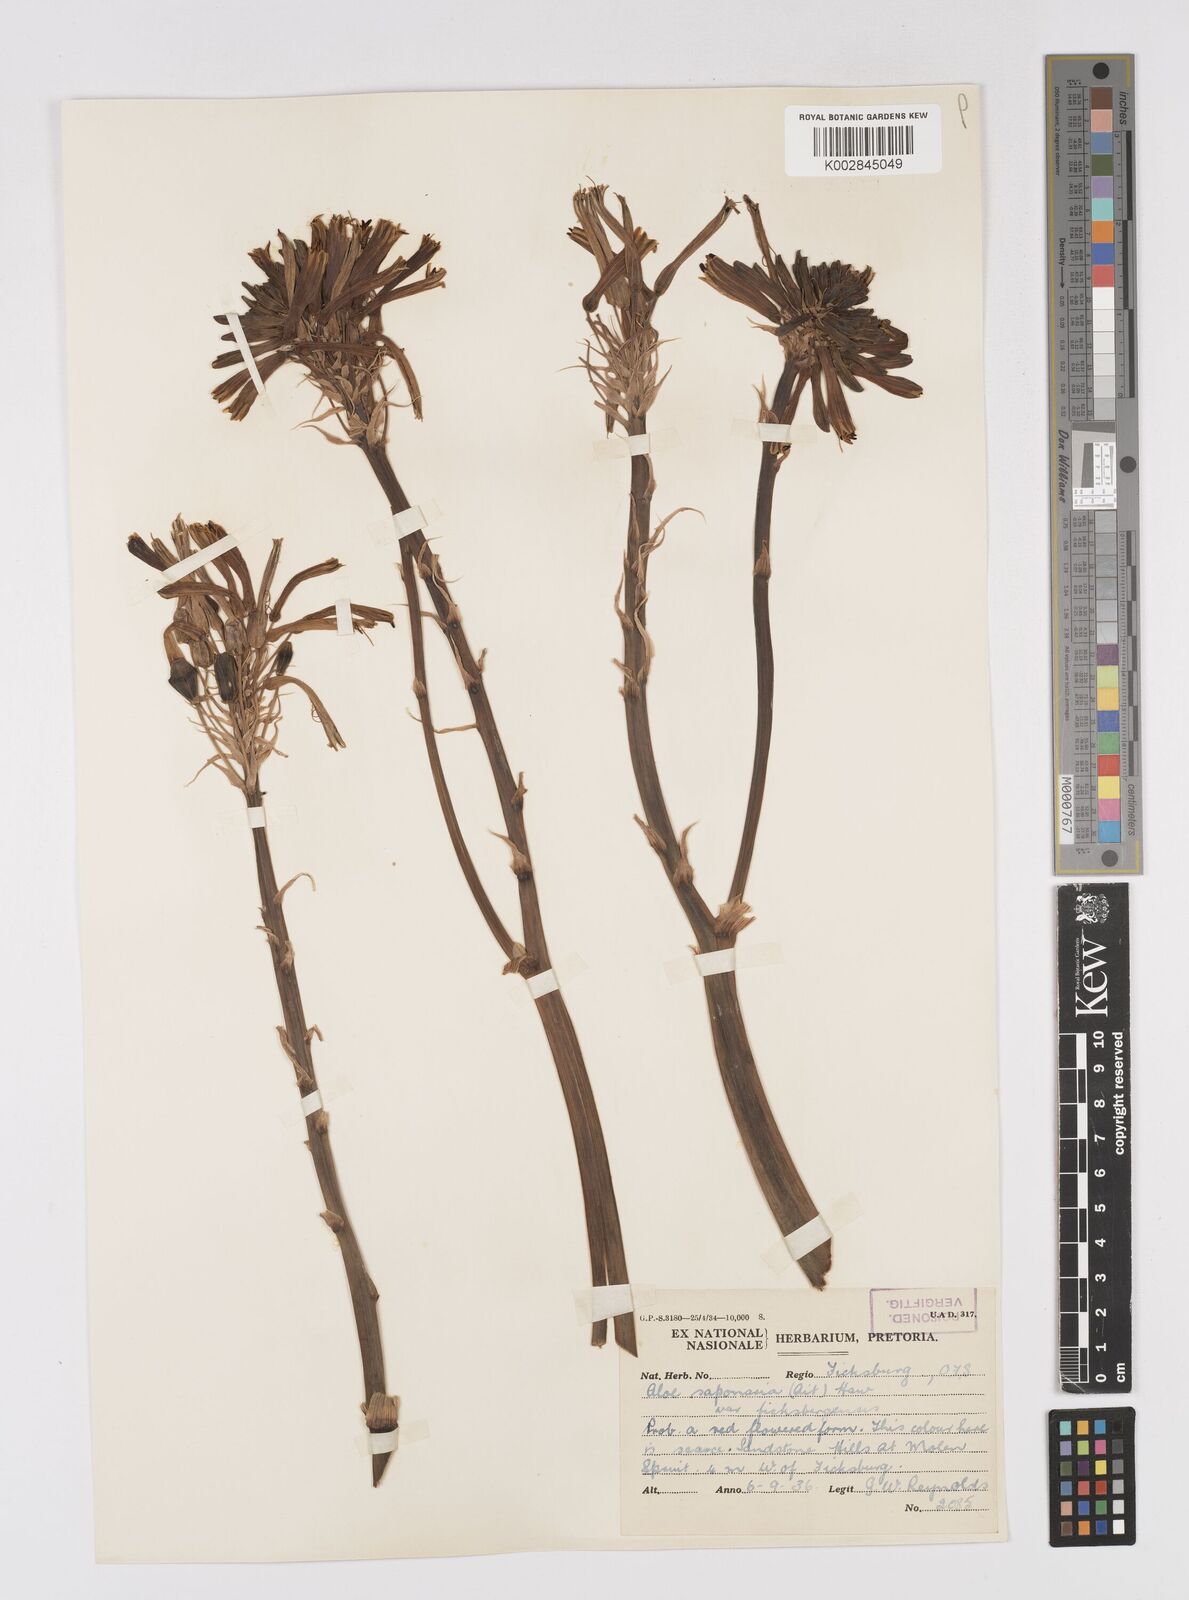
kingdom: Plantae
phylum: Tracheophyta
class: Liliopsida
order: Asparagales
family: Asphodelaceae
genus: Aloe
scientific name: Aloe maculata
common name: Broadleaf aloe
